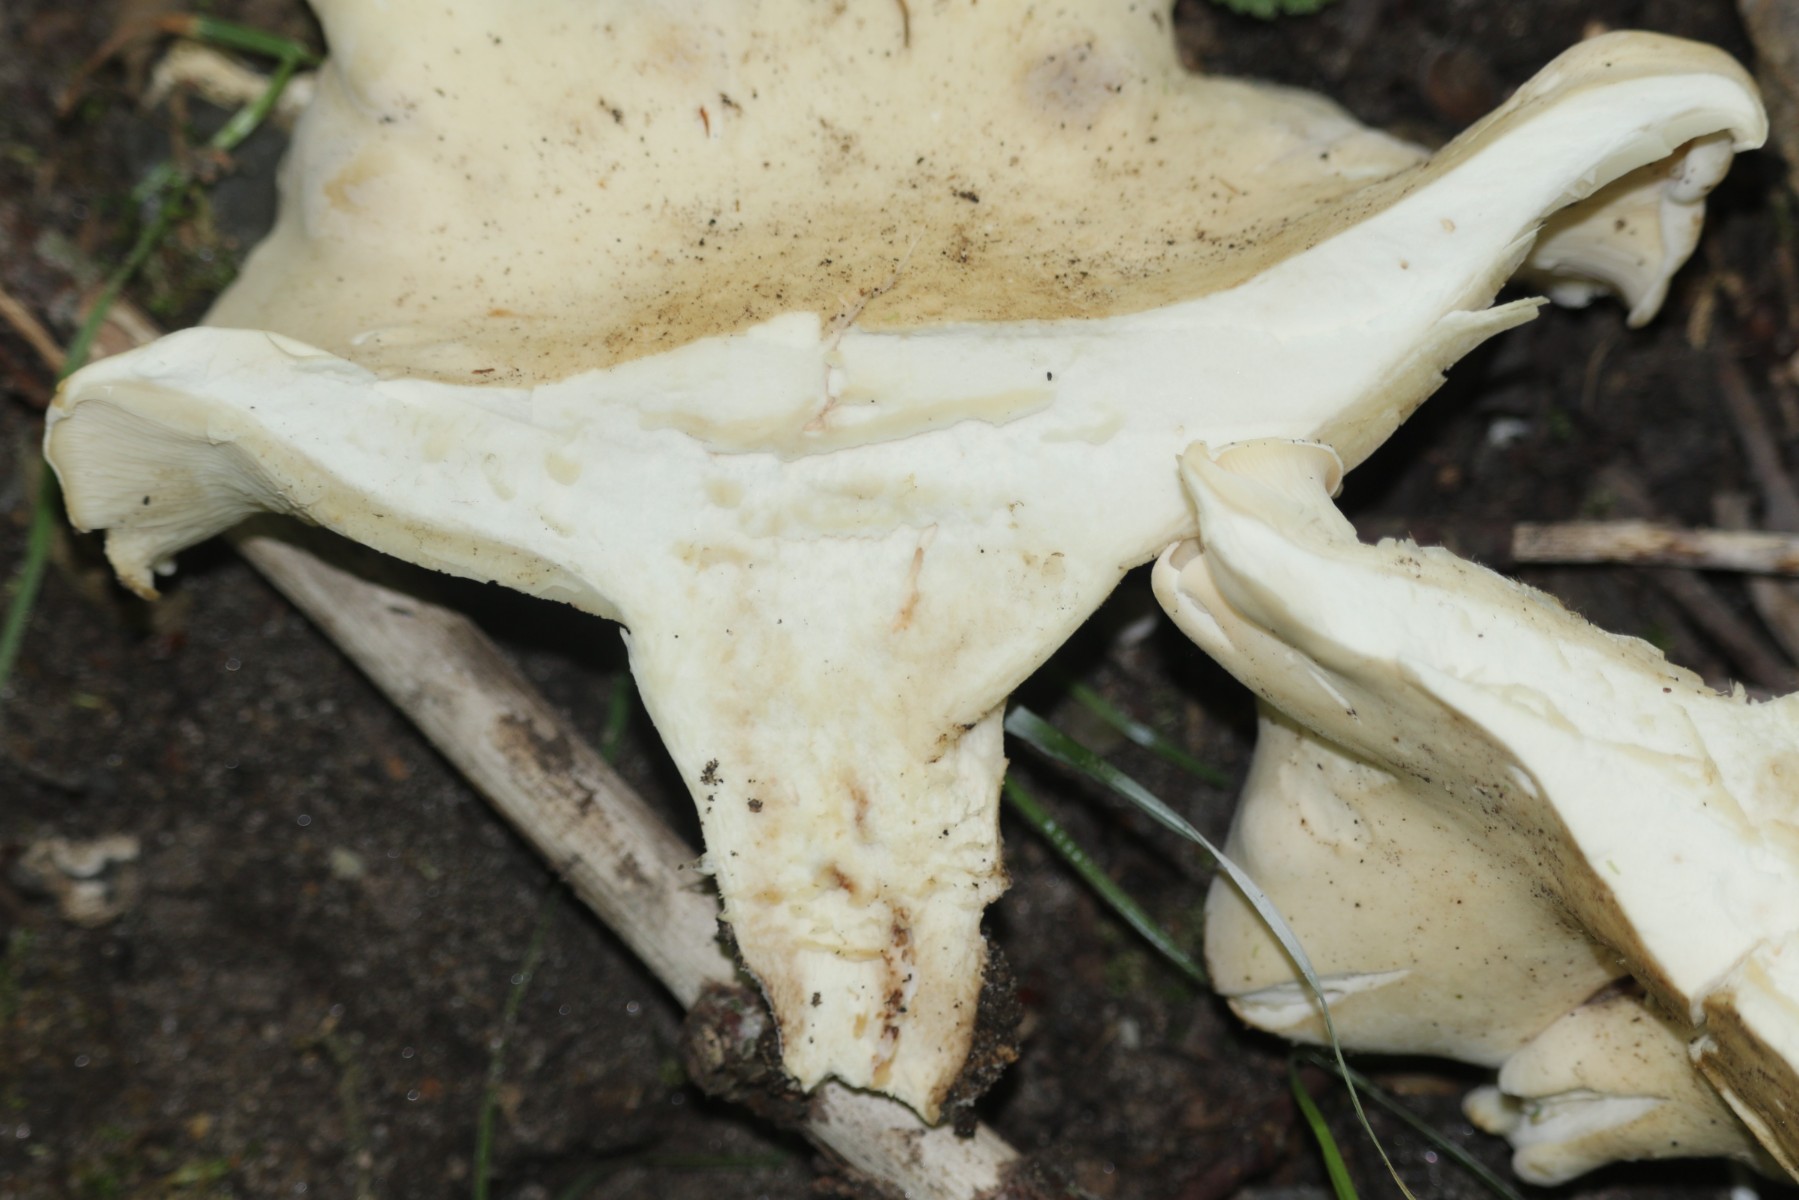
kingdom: Fungi
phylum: Basidiomycota
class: Agaricomycetes
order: Agaricales
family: Lyophyllaceae
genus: Calocybe
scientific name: Calocybe gambosa
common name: vårmusseron
